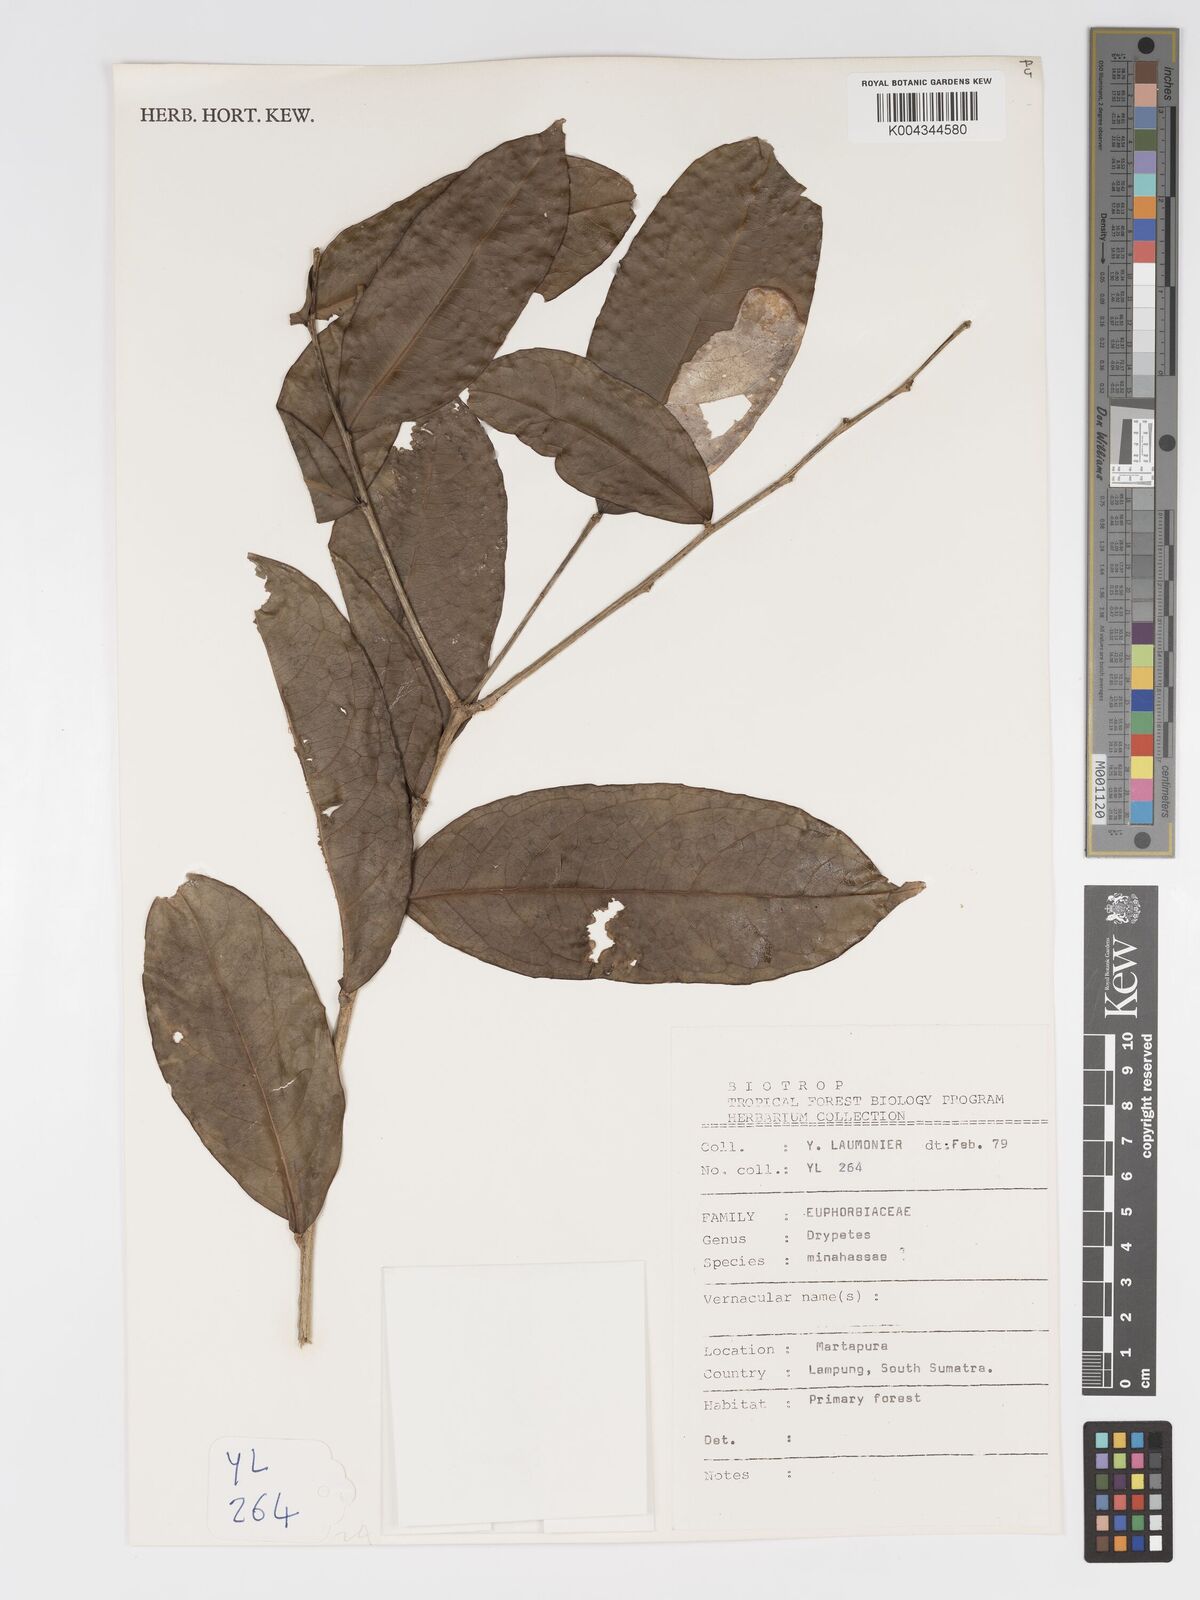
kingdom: Plantae
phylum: Tracheophyta
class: Magnoliopsida
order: Malpighiales
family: Putranjivaceae
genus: Drypetes
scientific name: Drypetes minahassae
